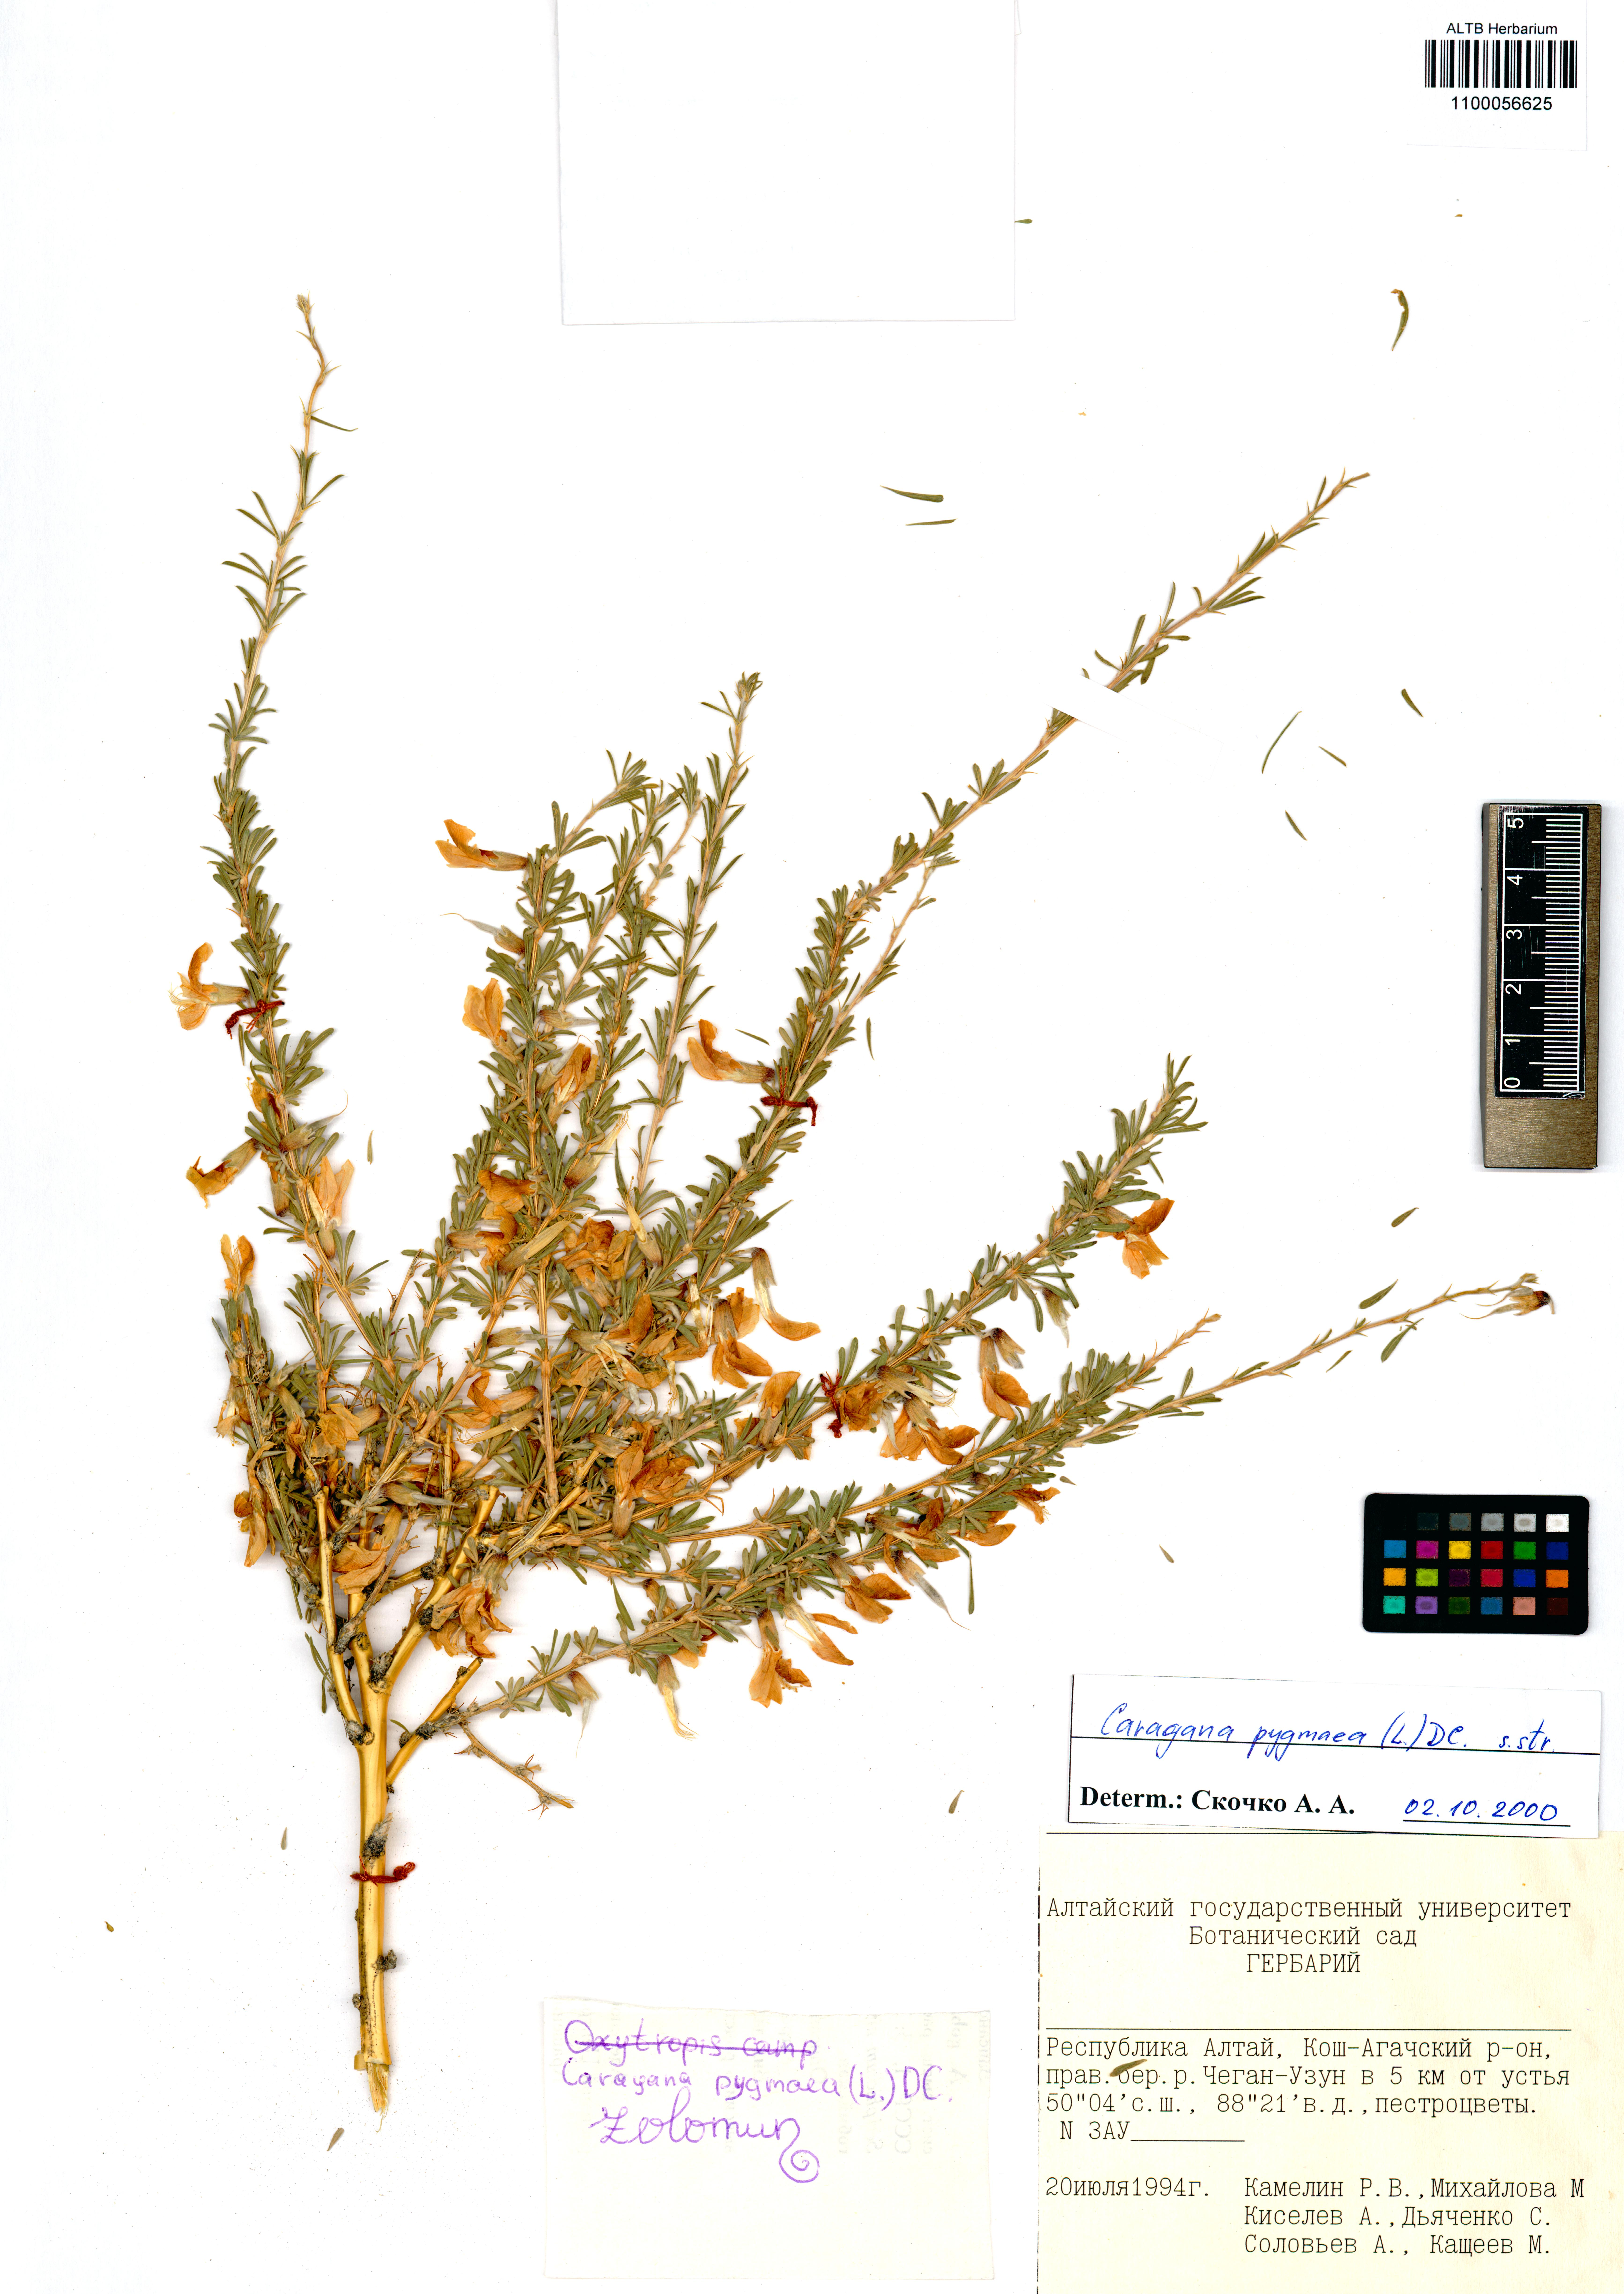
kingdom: Plantae
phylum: Tracheophyta
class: Magnoliopsida
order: Fabales
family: Fabaceae
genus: Caragana
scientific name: Caragana pygmaea
